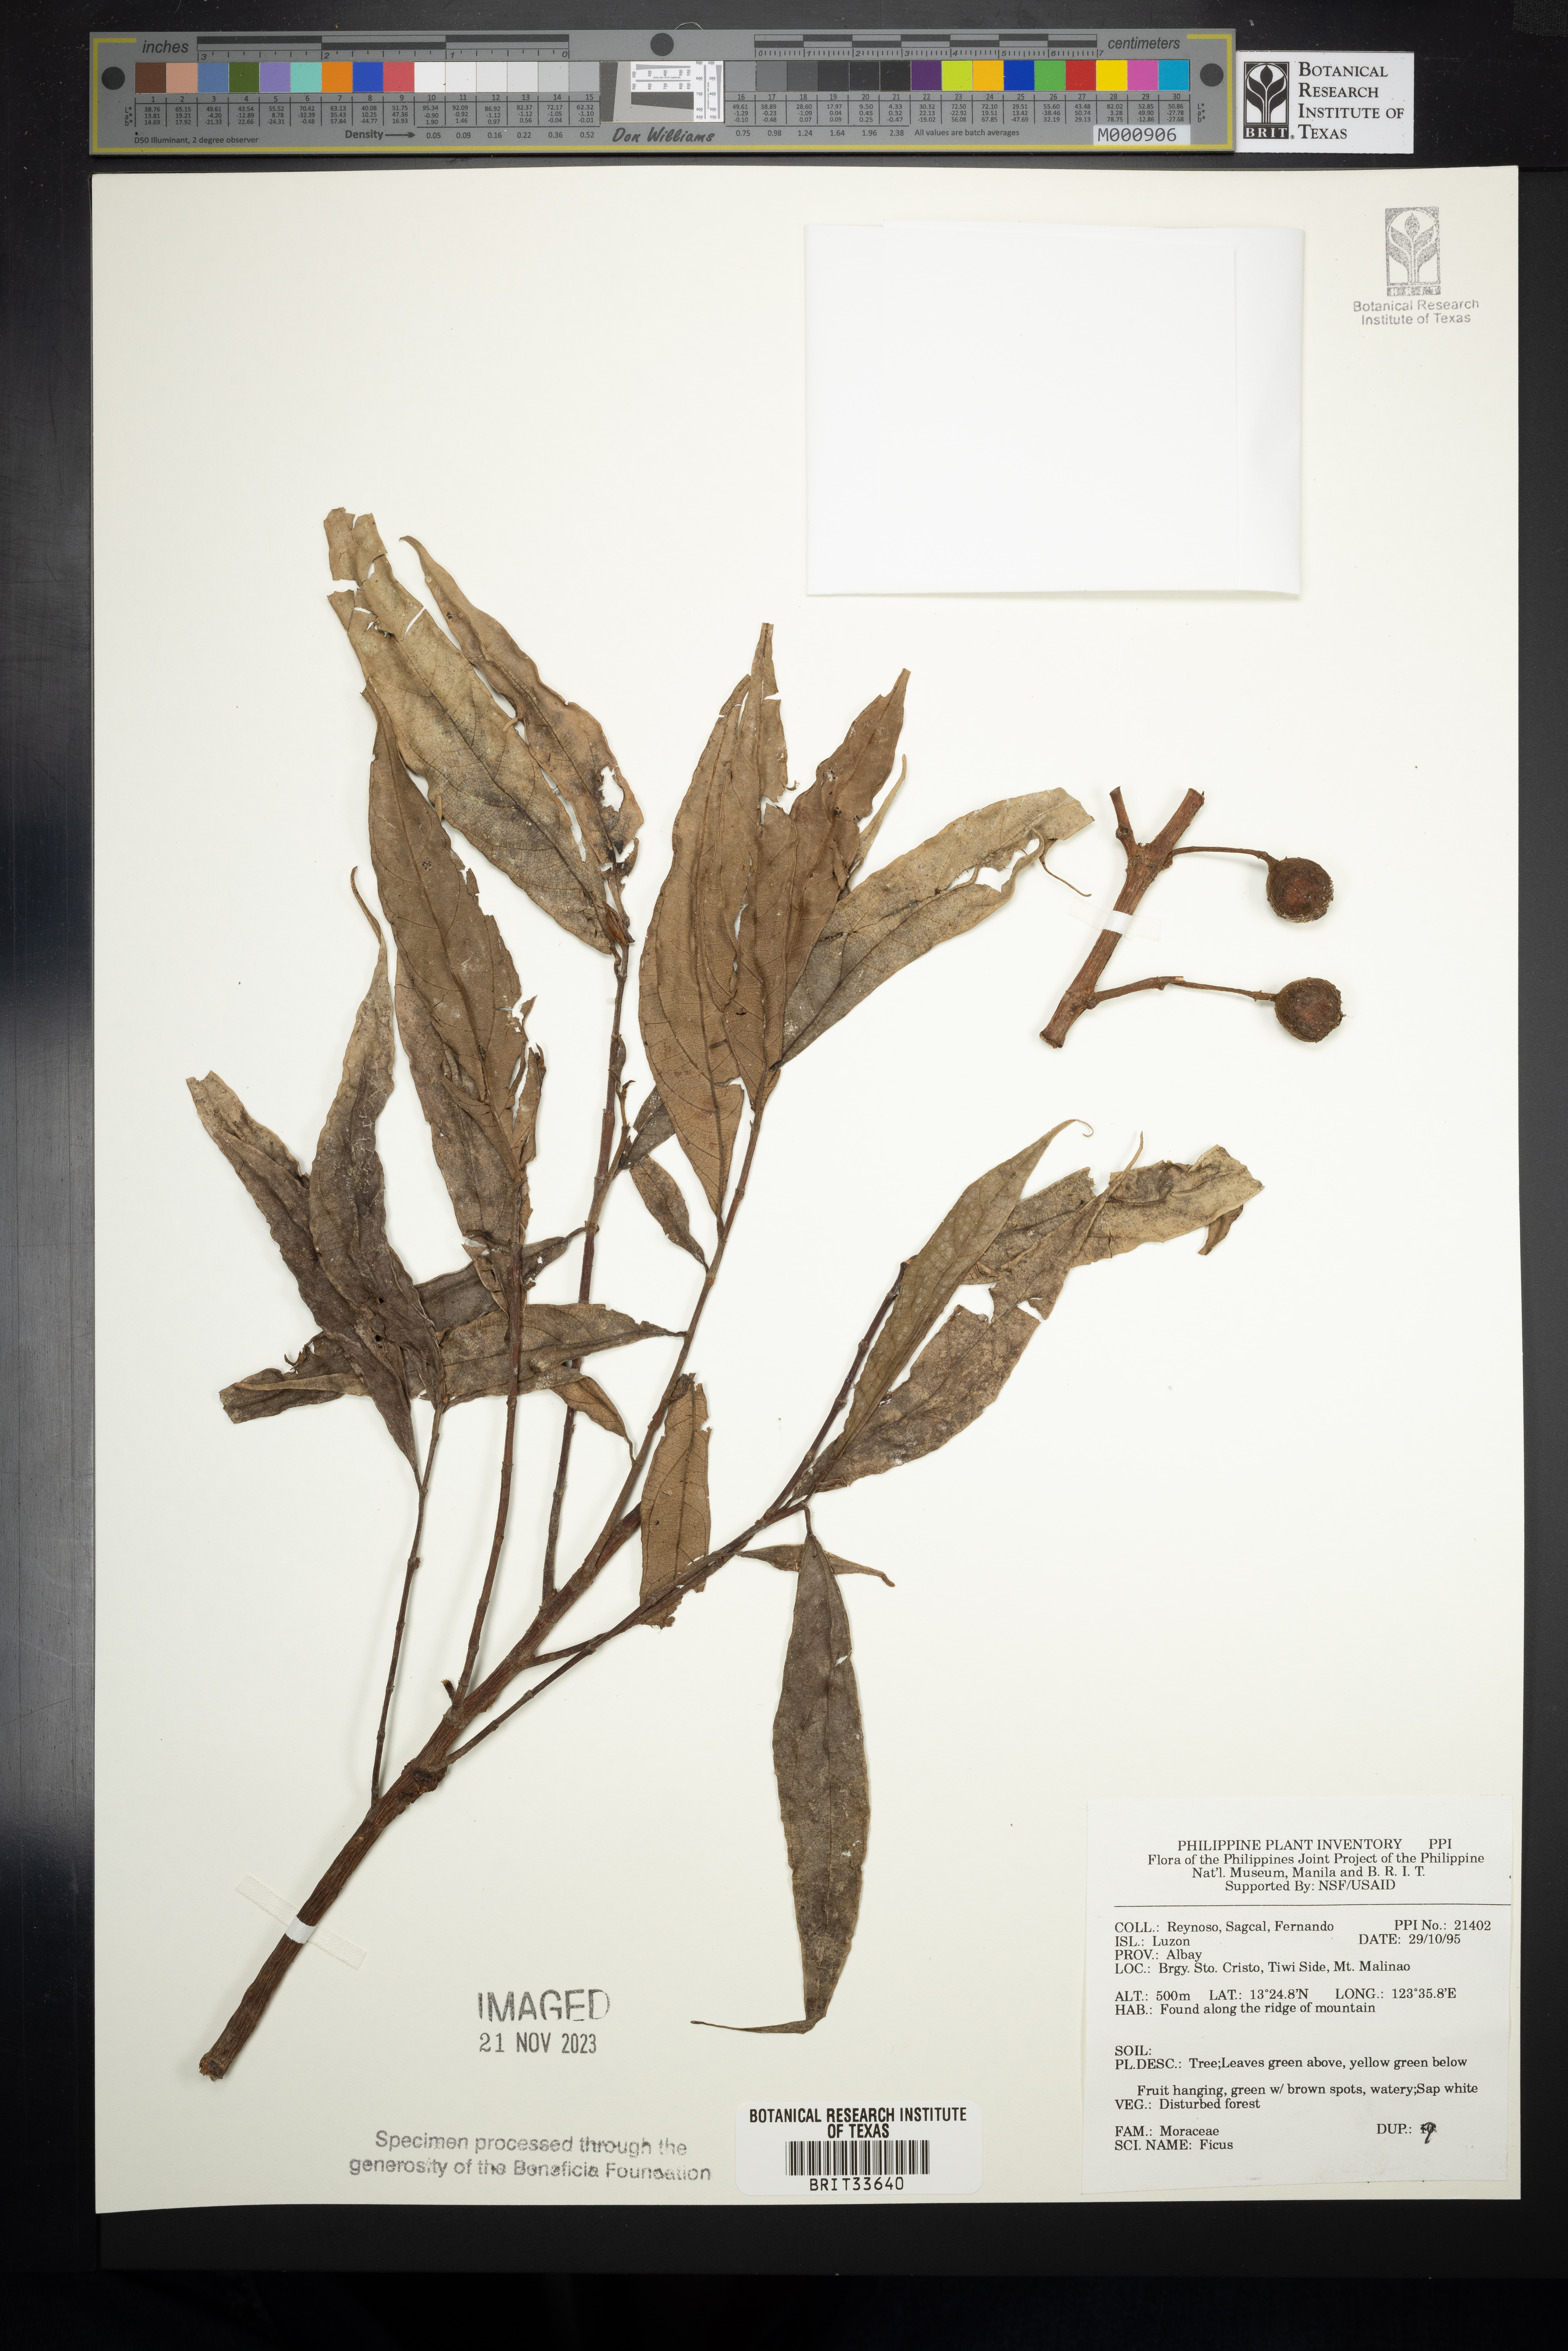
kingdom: Plantae
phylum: Tracheophyta
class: Magnoliopsida
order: Rosales
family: Moraceae
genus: Ficus
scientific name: Ficus
